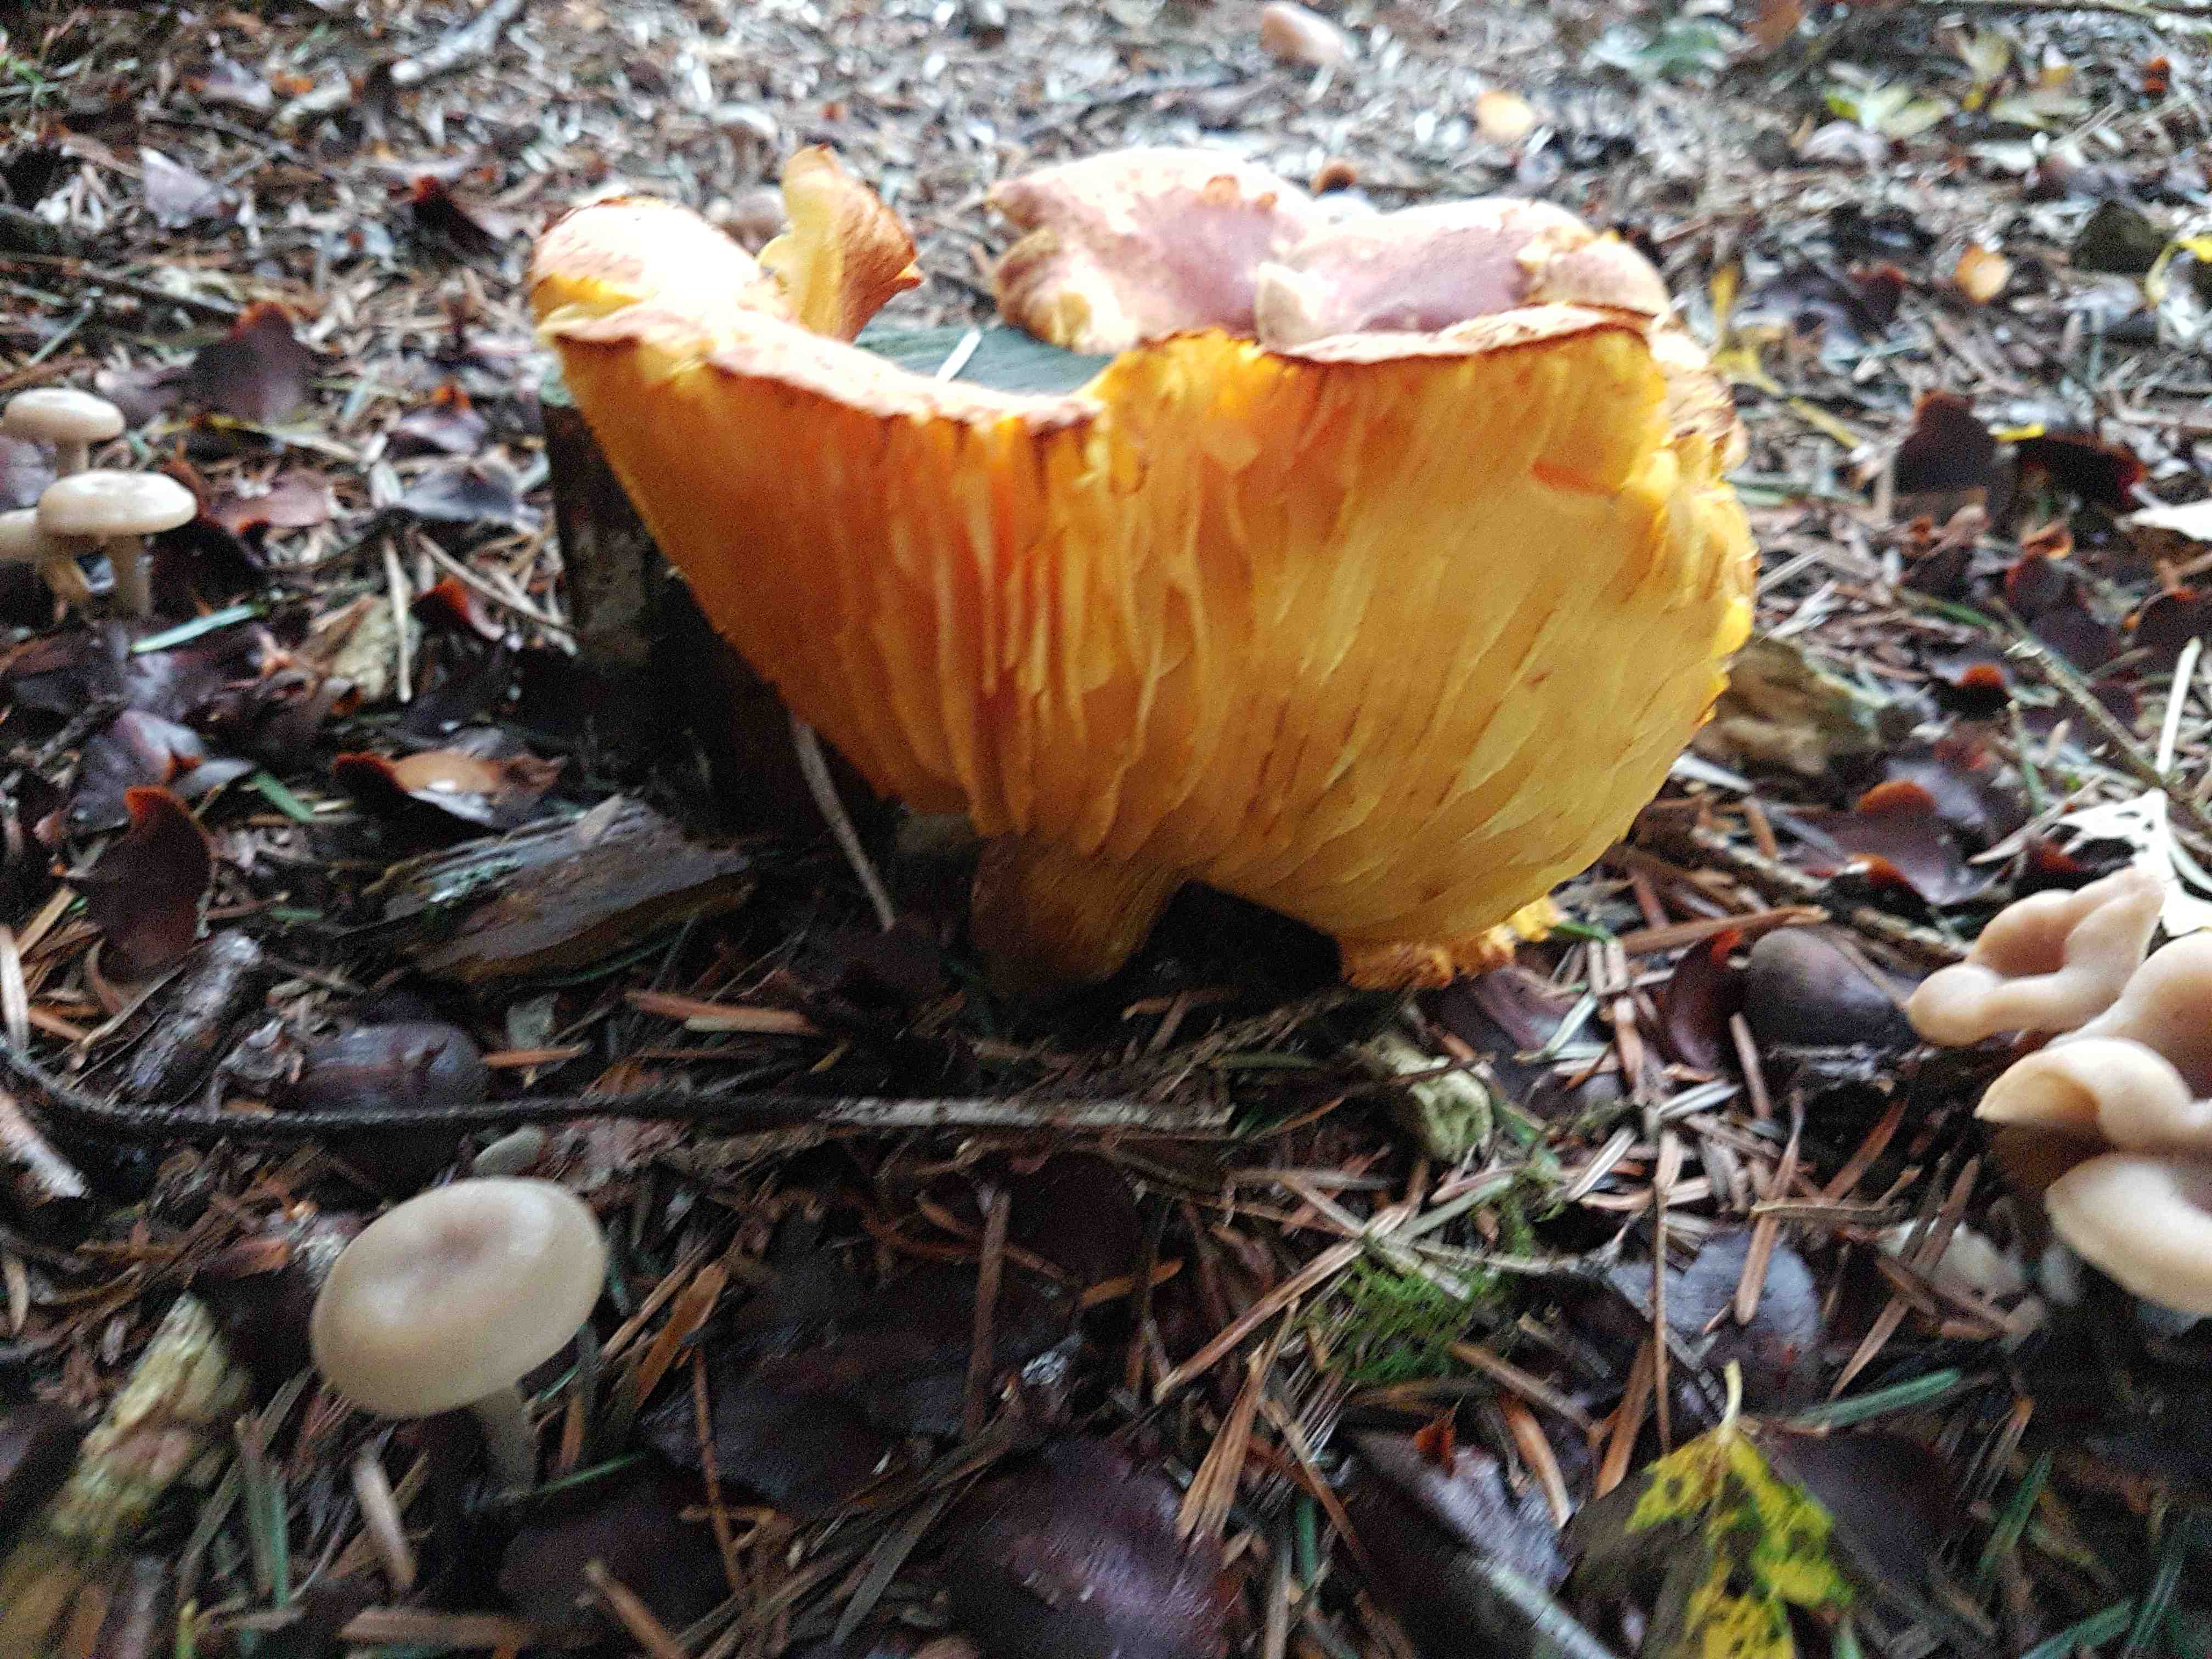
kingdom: Fungi
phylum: Basidiomycota
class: Agaricomycetes
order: Agaricales
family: Tricholomataceae
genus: Tricholomopsis
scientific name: Tricholomopsis rutilans
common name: purpur-væbnerhat
